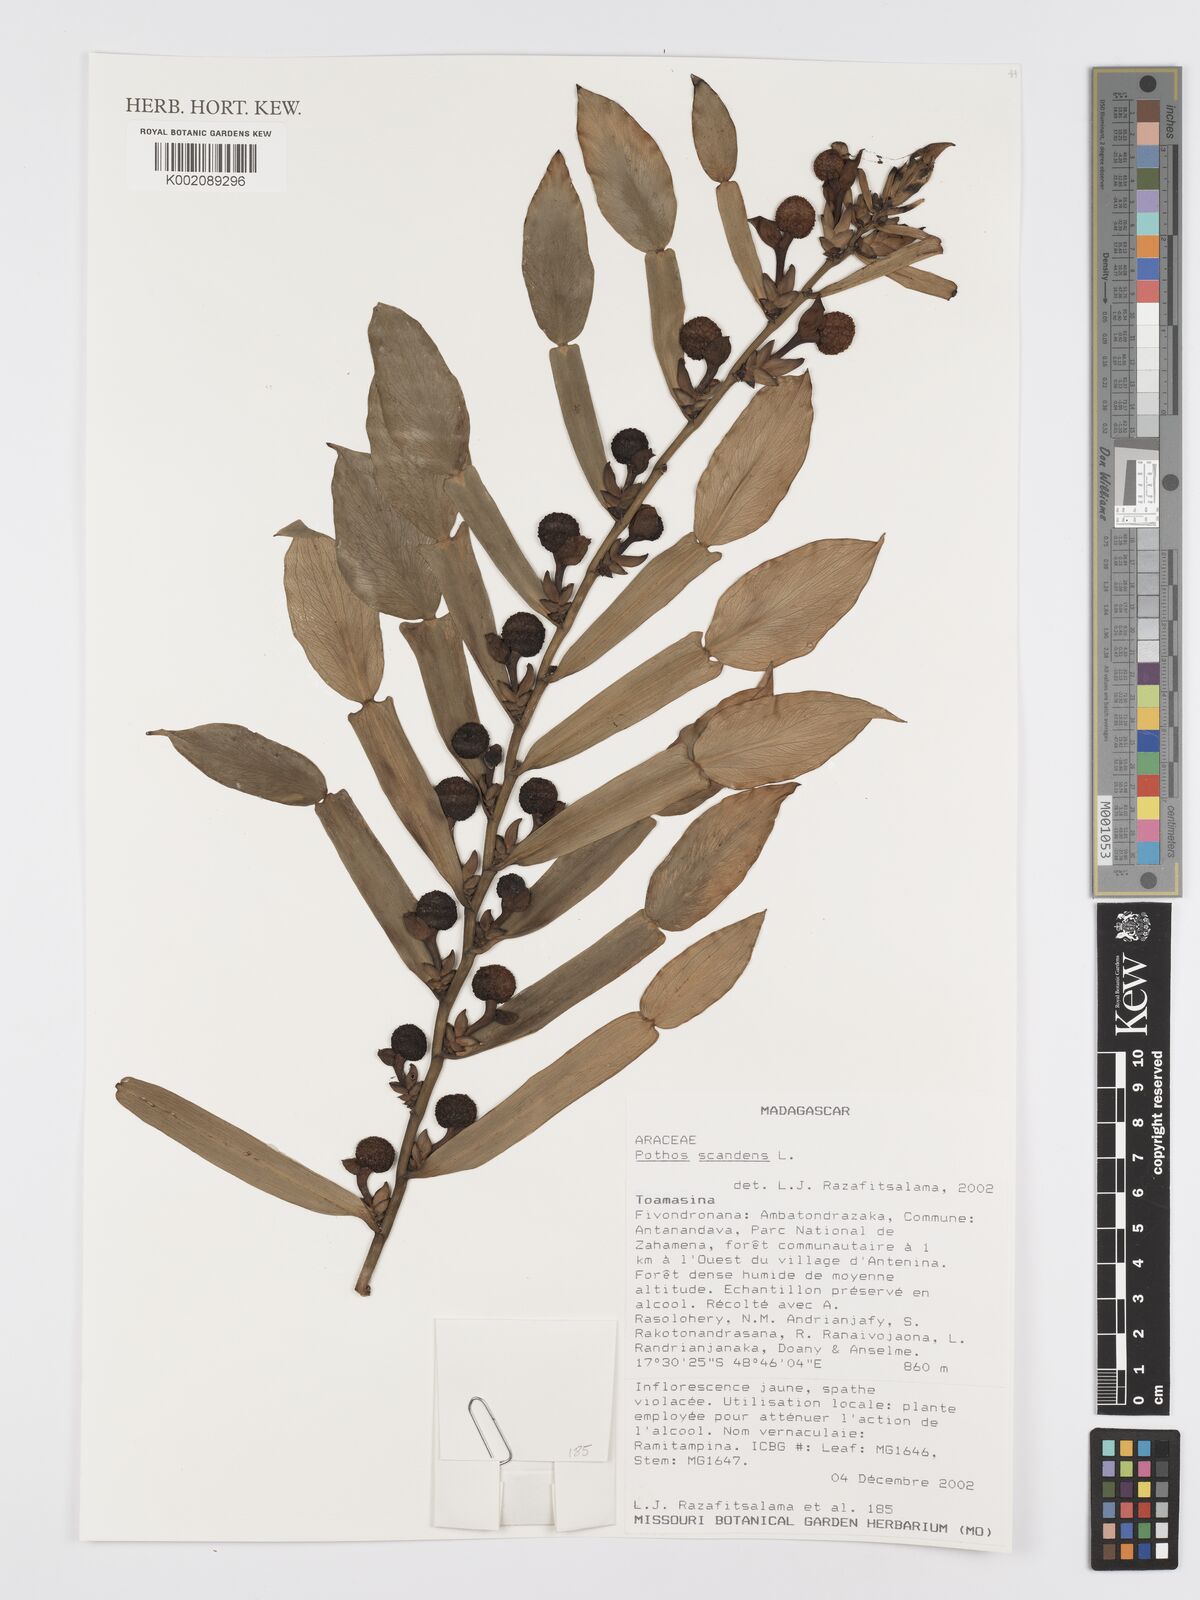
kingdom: Plantae
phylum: Tracheophyta
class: Liliopsida
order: Alismatales
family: Araceae
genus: Pothos
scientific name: Pothos scandens
